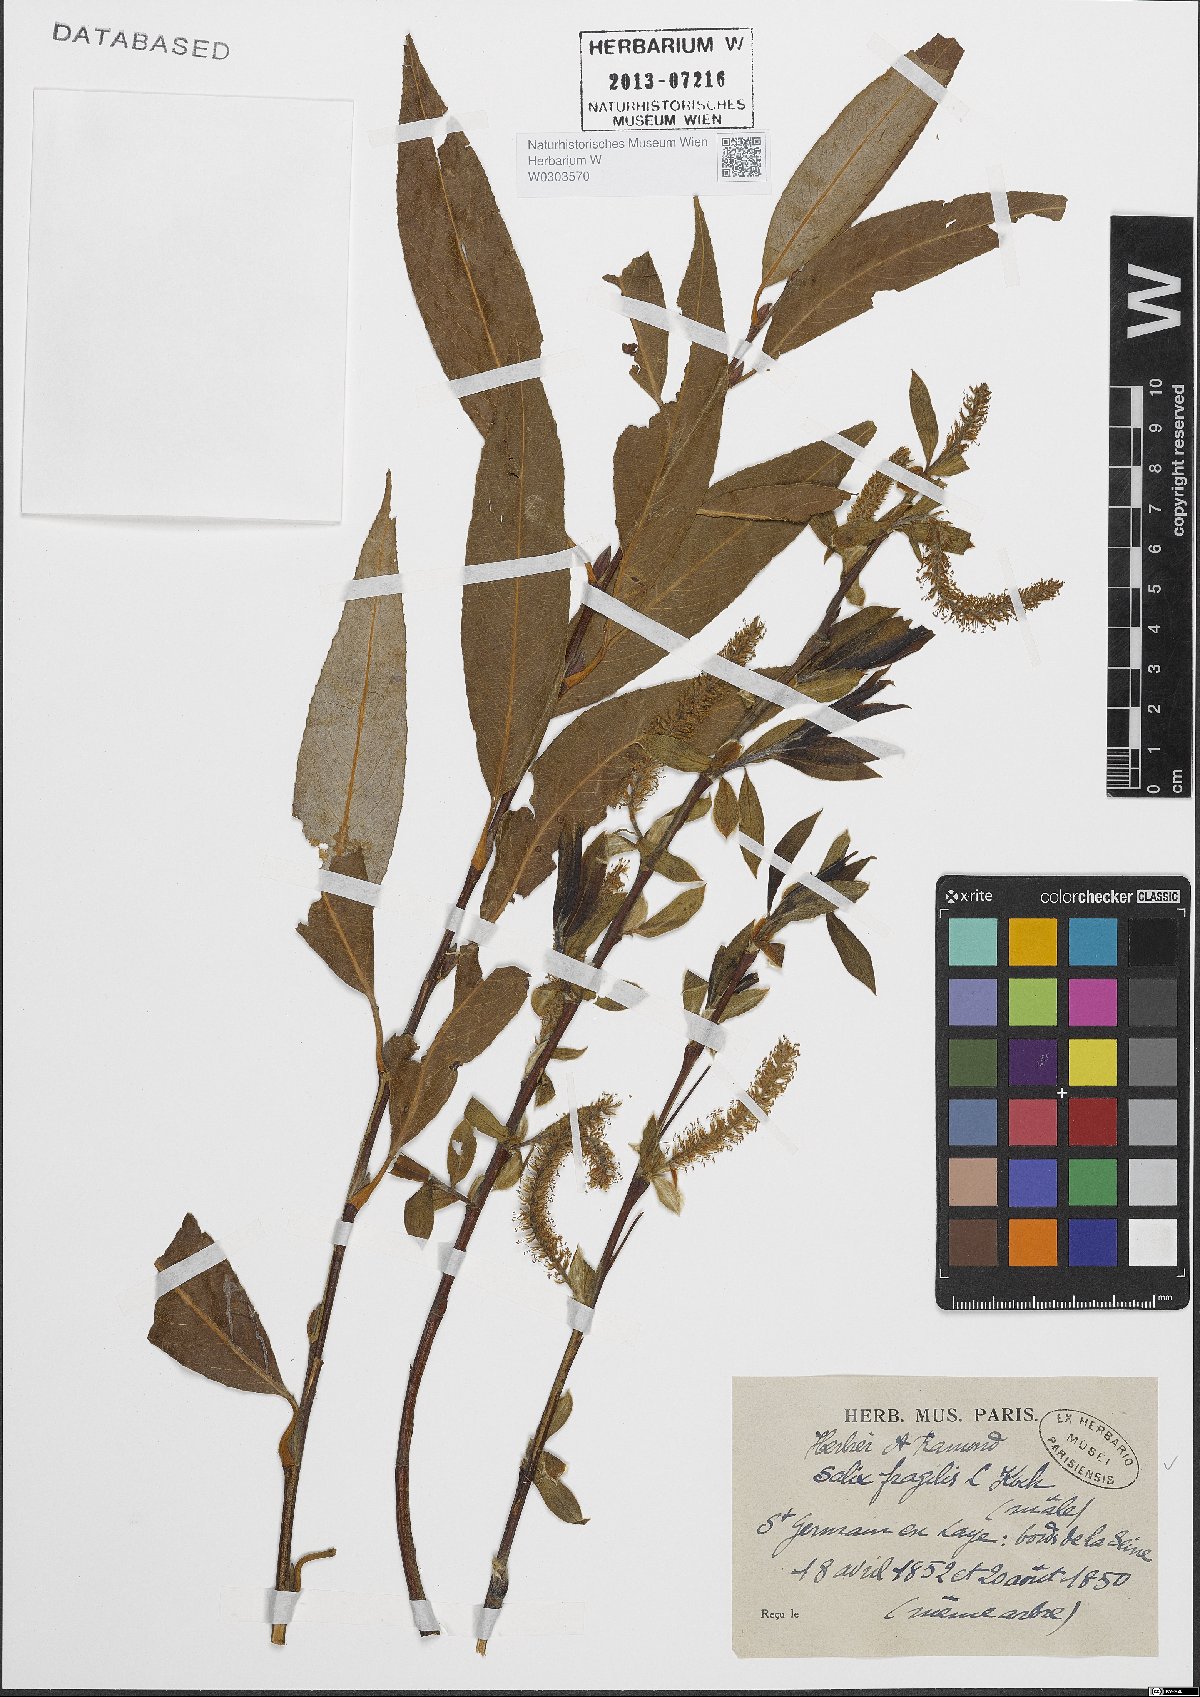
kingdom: Plantae
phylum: Tracheophyta
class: Magnoliopsida
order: Malpighiales
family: Salicaceae
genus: Salix
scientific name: Salix fragilis
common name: Crack willow
